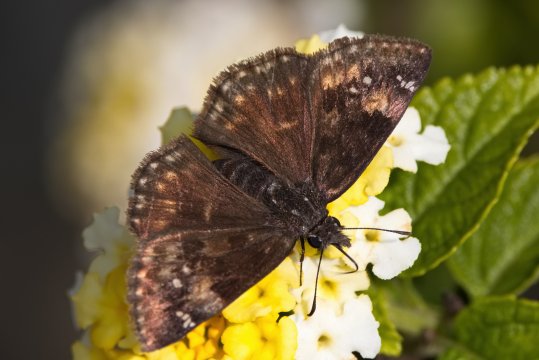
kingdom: Animalia
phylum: Arthropoda
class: Insecta
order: Lepidoptera
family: Hesperiidae
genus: Gesta
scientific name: Gesta
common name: Wild Indigo Duskywing
